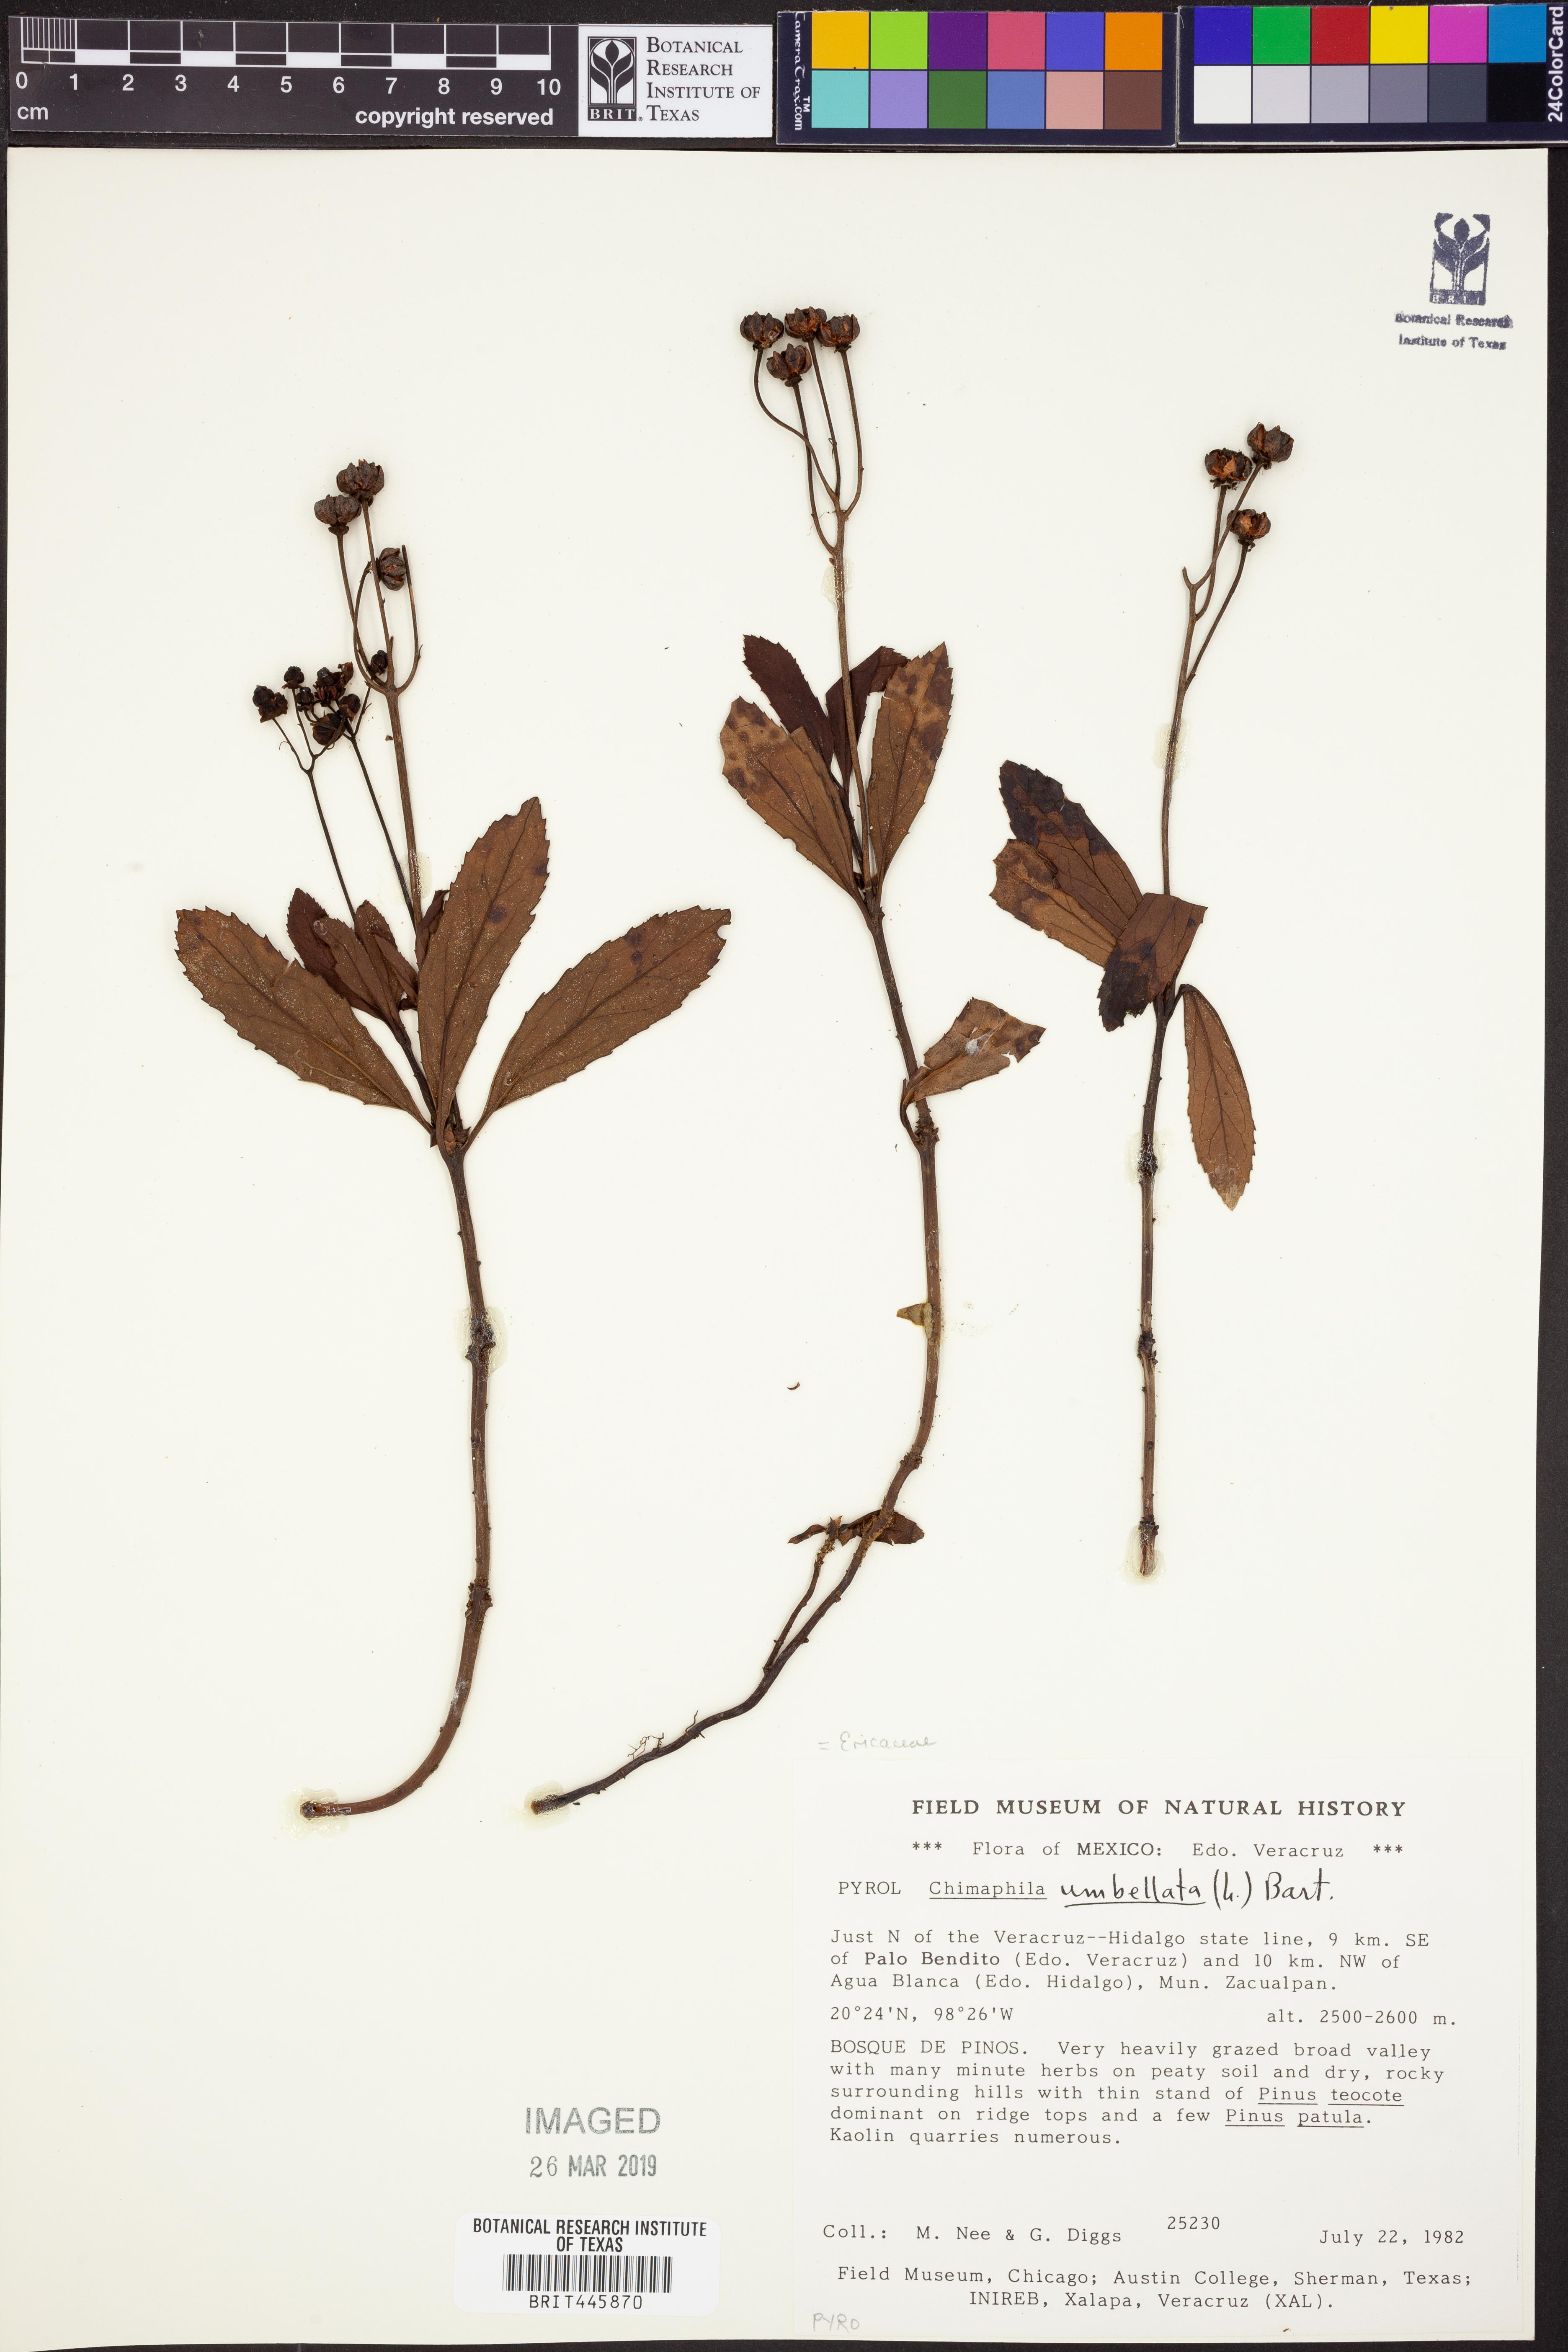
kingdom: Plantae
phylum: Tracheophyta
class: Magnoliopsida
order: Ericales
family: Ericaceae
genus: Chimaphila
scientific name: Chimaphila umbellata
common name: Pipsissewa
